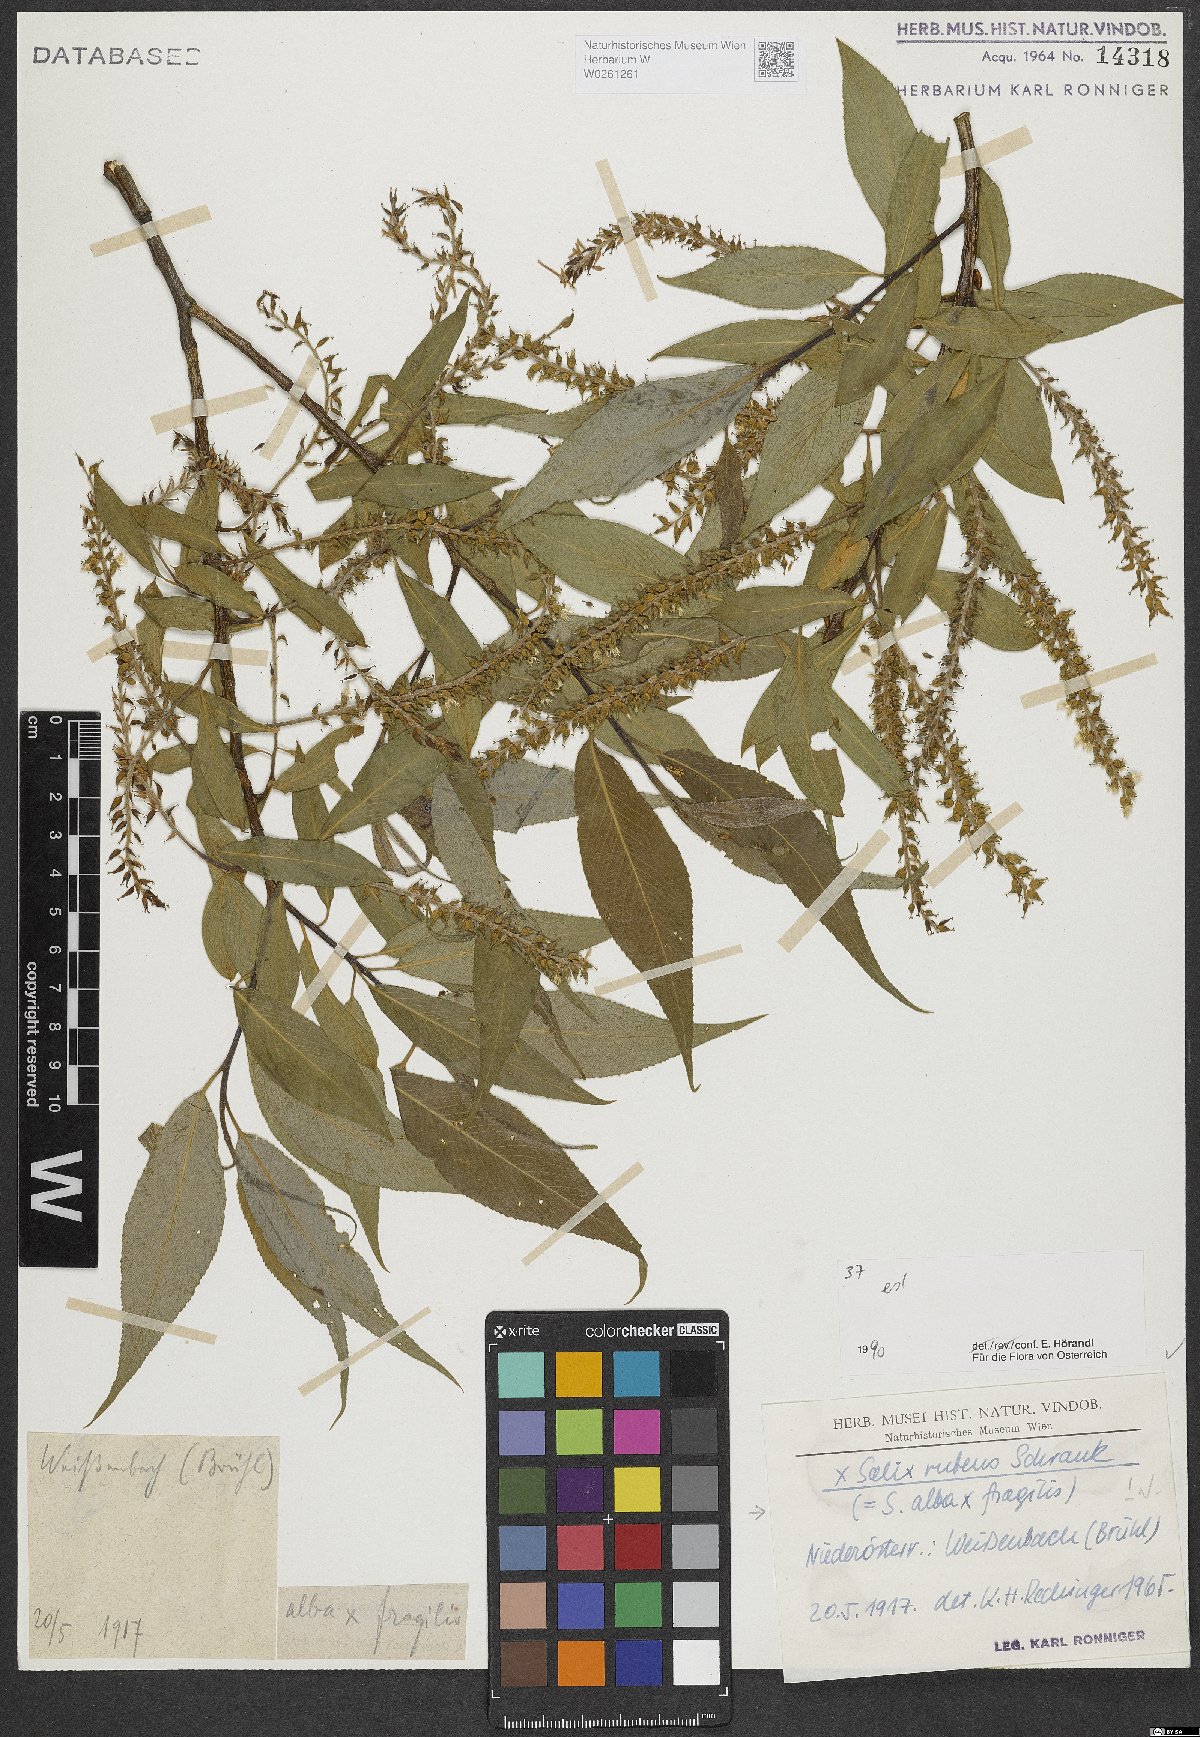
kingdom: Plantae
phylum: Tracheophyta
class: Magnoliopsida
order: Malpighiales
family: Salicaceae
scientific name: Salicaceae
